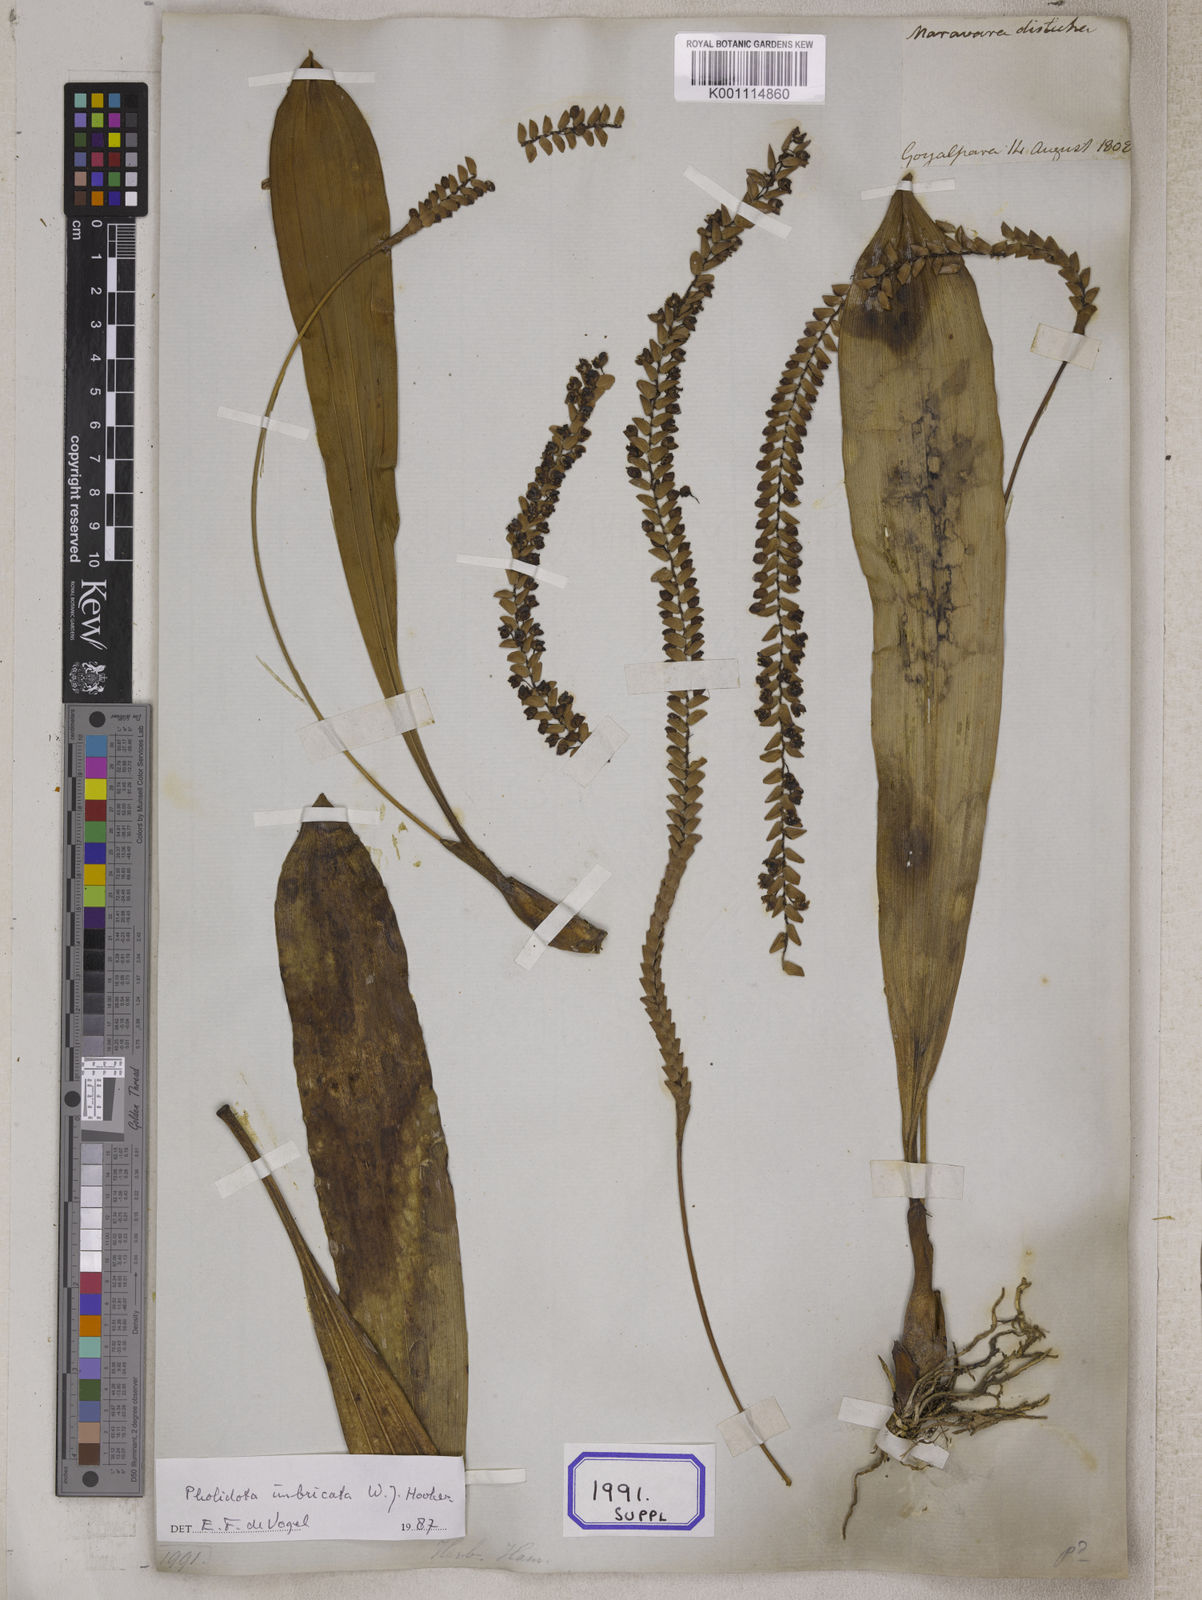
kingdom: Plantae
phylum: Tracheophyta
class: Liliopsida
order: Asparagales
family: Orchidaceae
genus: Pholidota
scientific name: Pholidota
